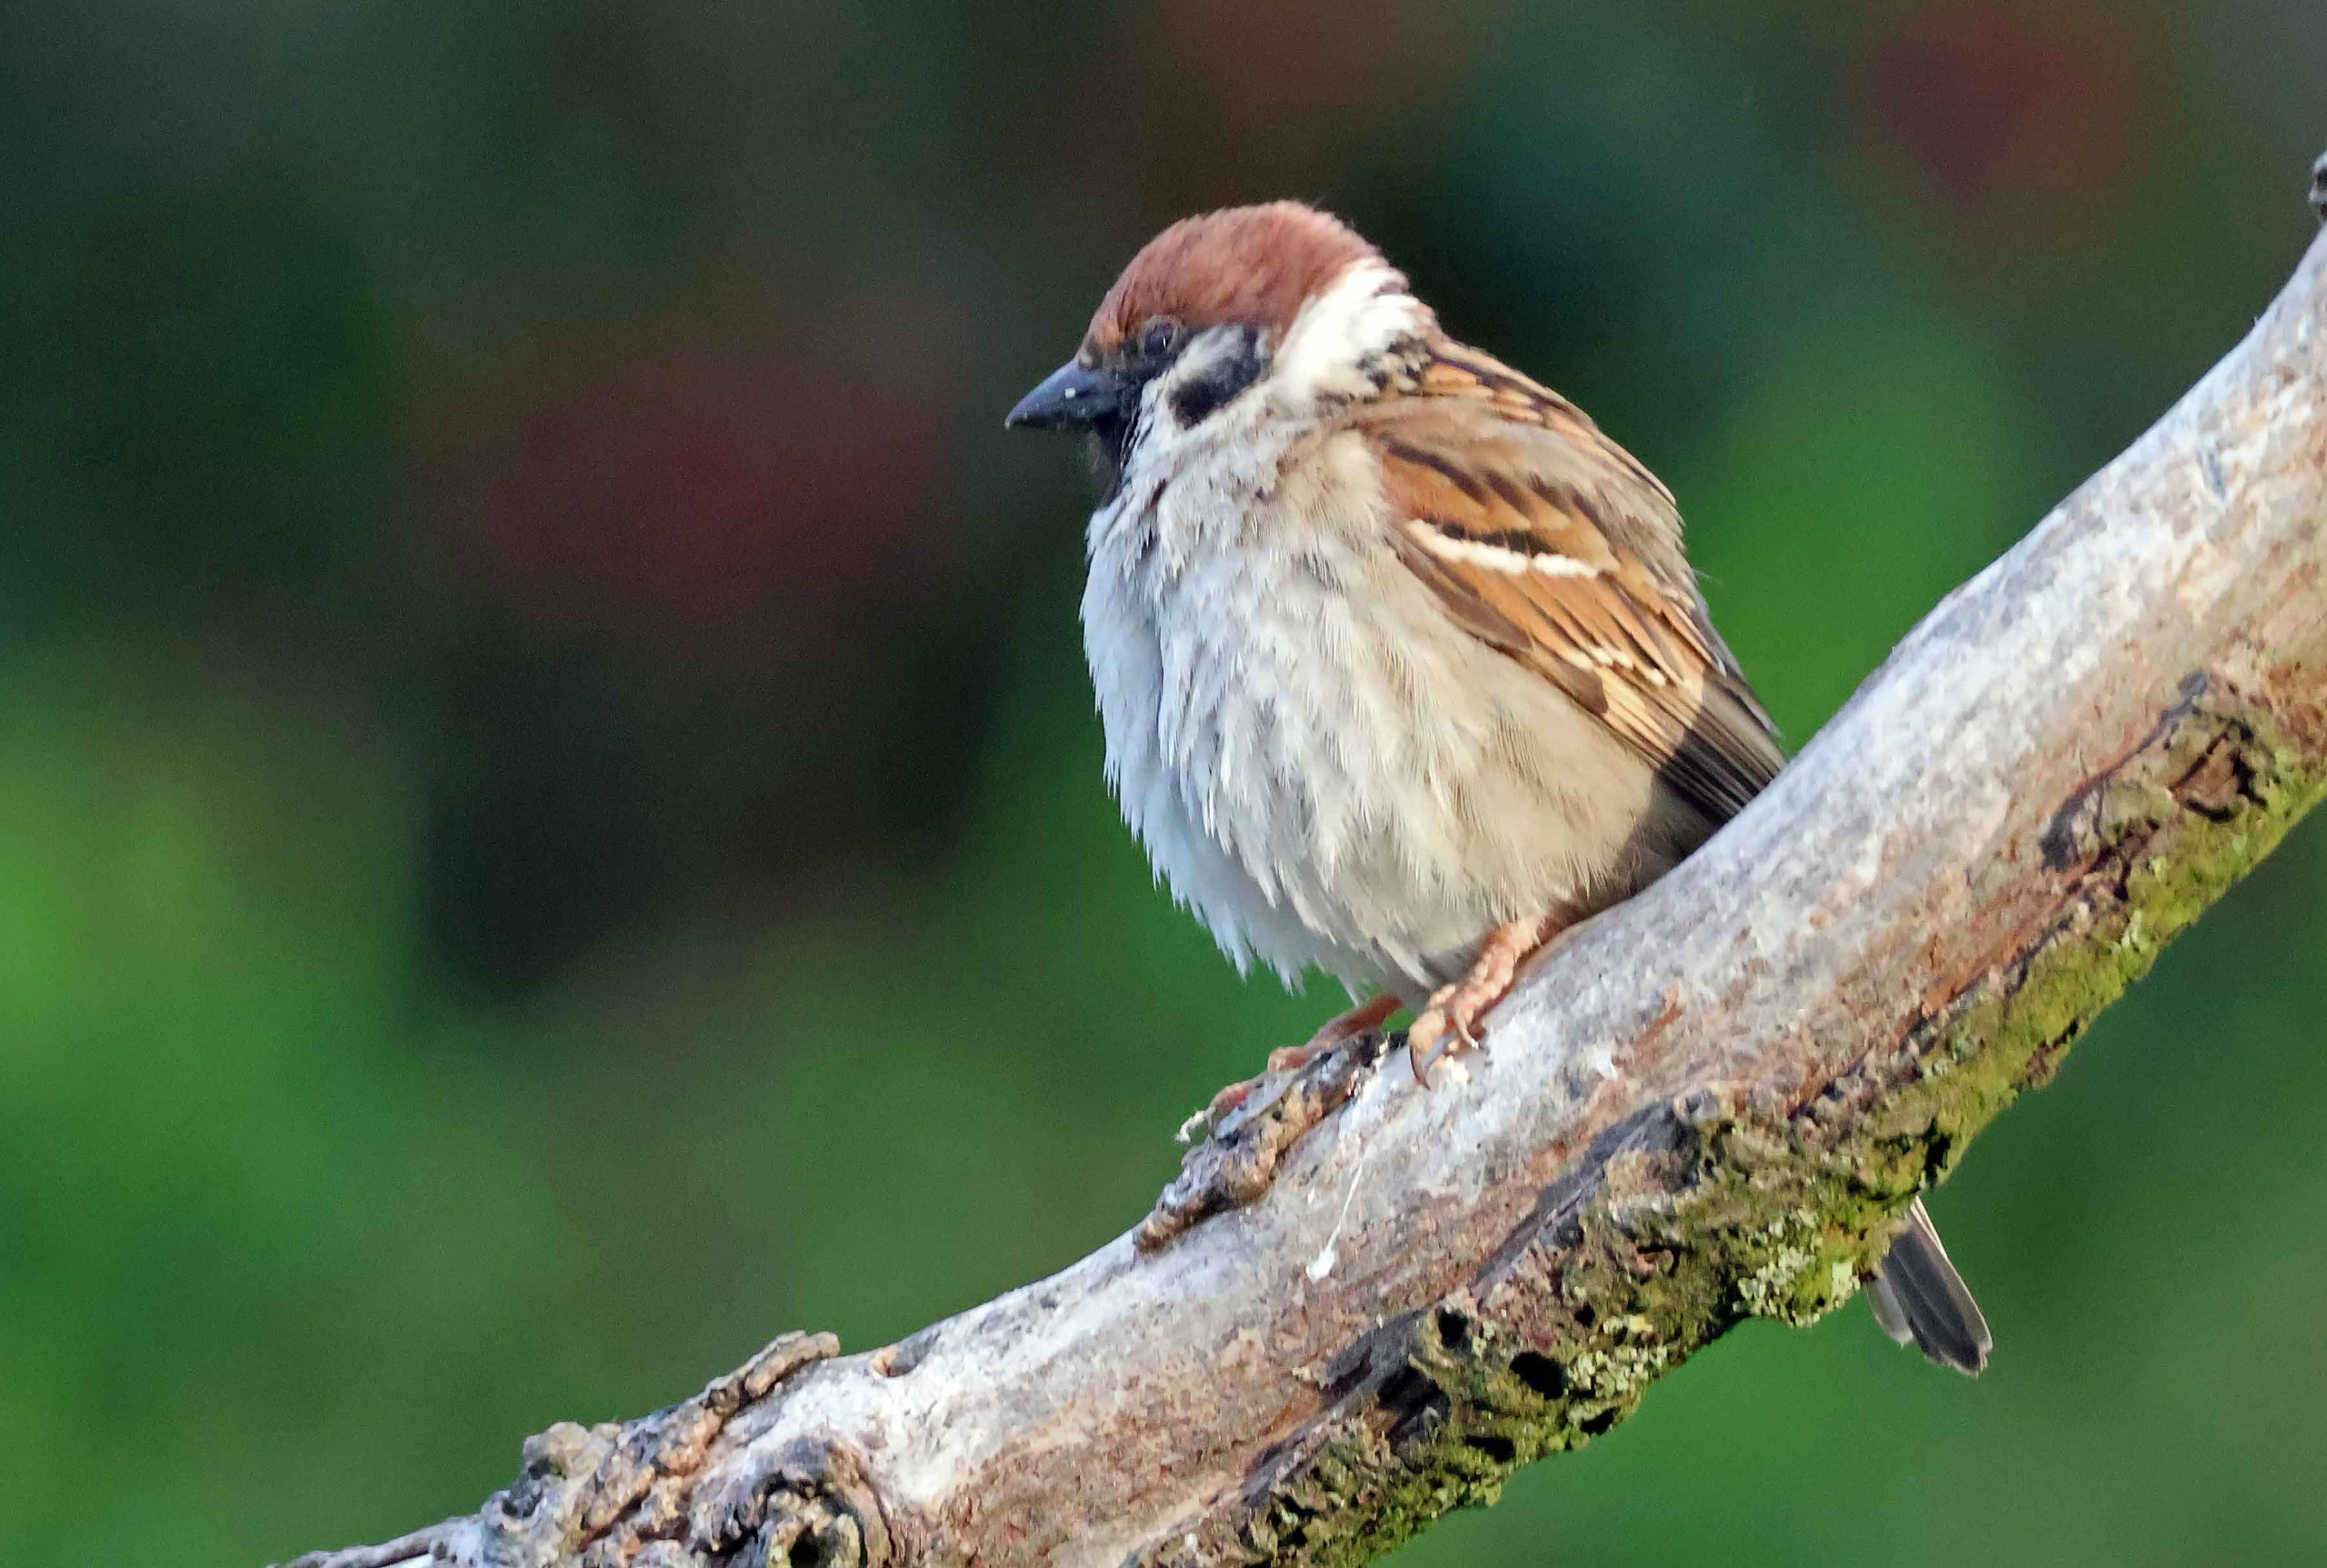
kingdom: Animalia
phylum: Chordata
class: Aves
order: Passeriformes
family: Passeridae
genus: Passer
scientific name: Passer montanus
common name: Skovspurv
